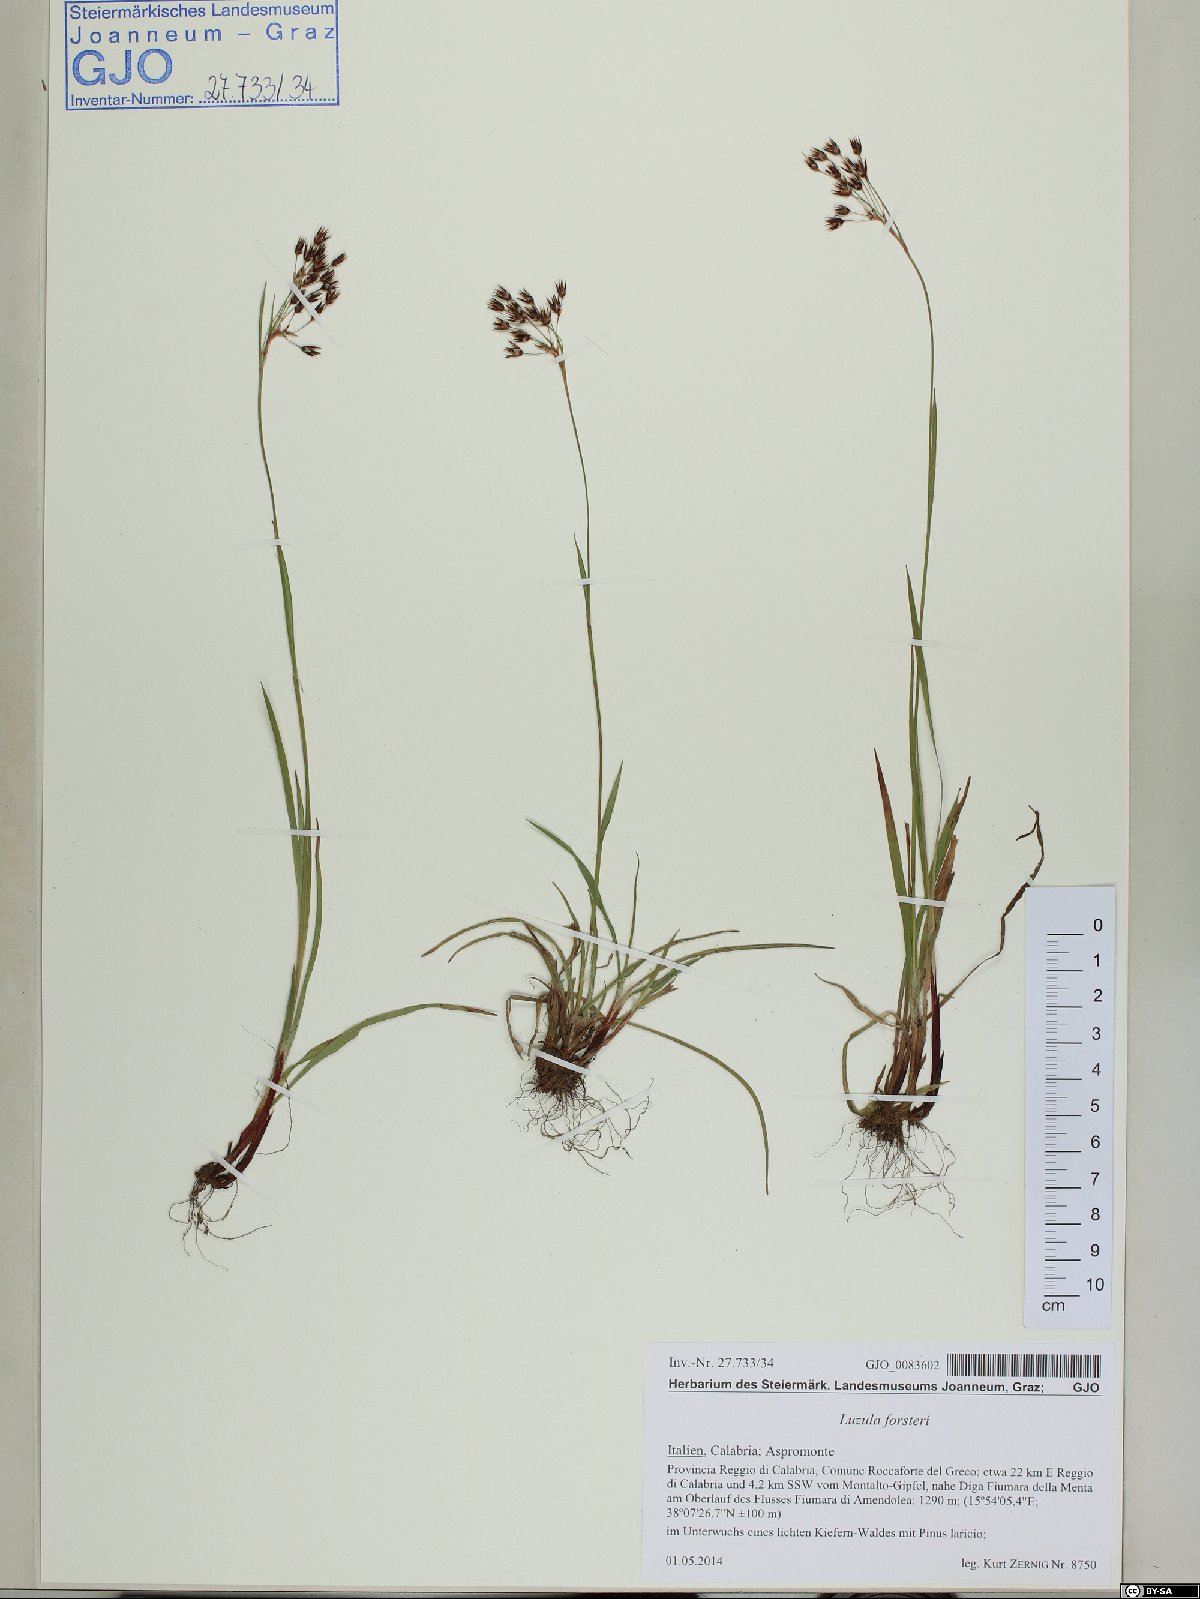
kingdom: Plantae
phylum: Tracheophyta
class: Liliopsida
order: Poales
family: Juncaceae
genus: Luzula
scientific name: Luzula forsteri
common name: Southern wood-rush
